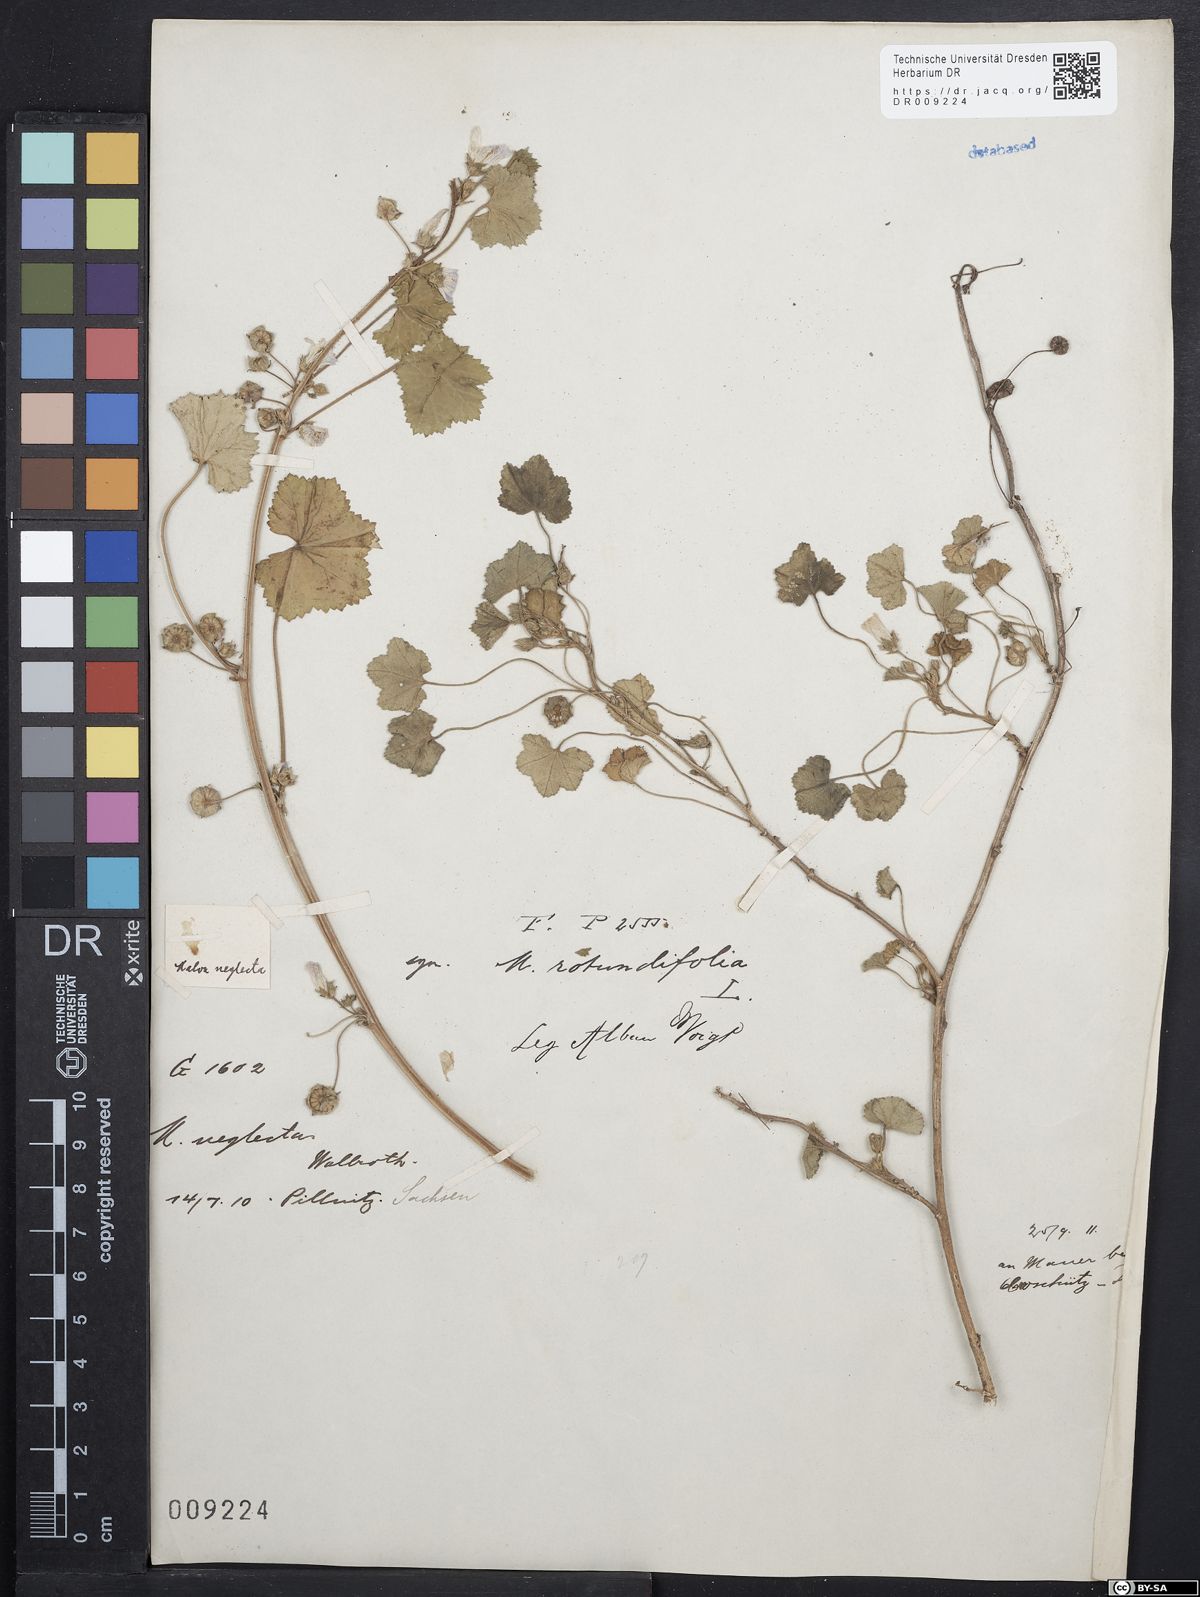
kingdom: Plantae
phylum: Tracheophyta
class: Magnoliopsida
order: Malvales
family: Malvaceae
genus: Malva
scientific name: Malva neglecta
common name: Common mallow
